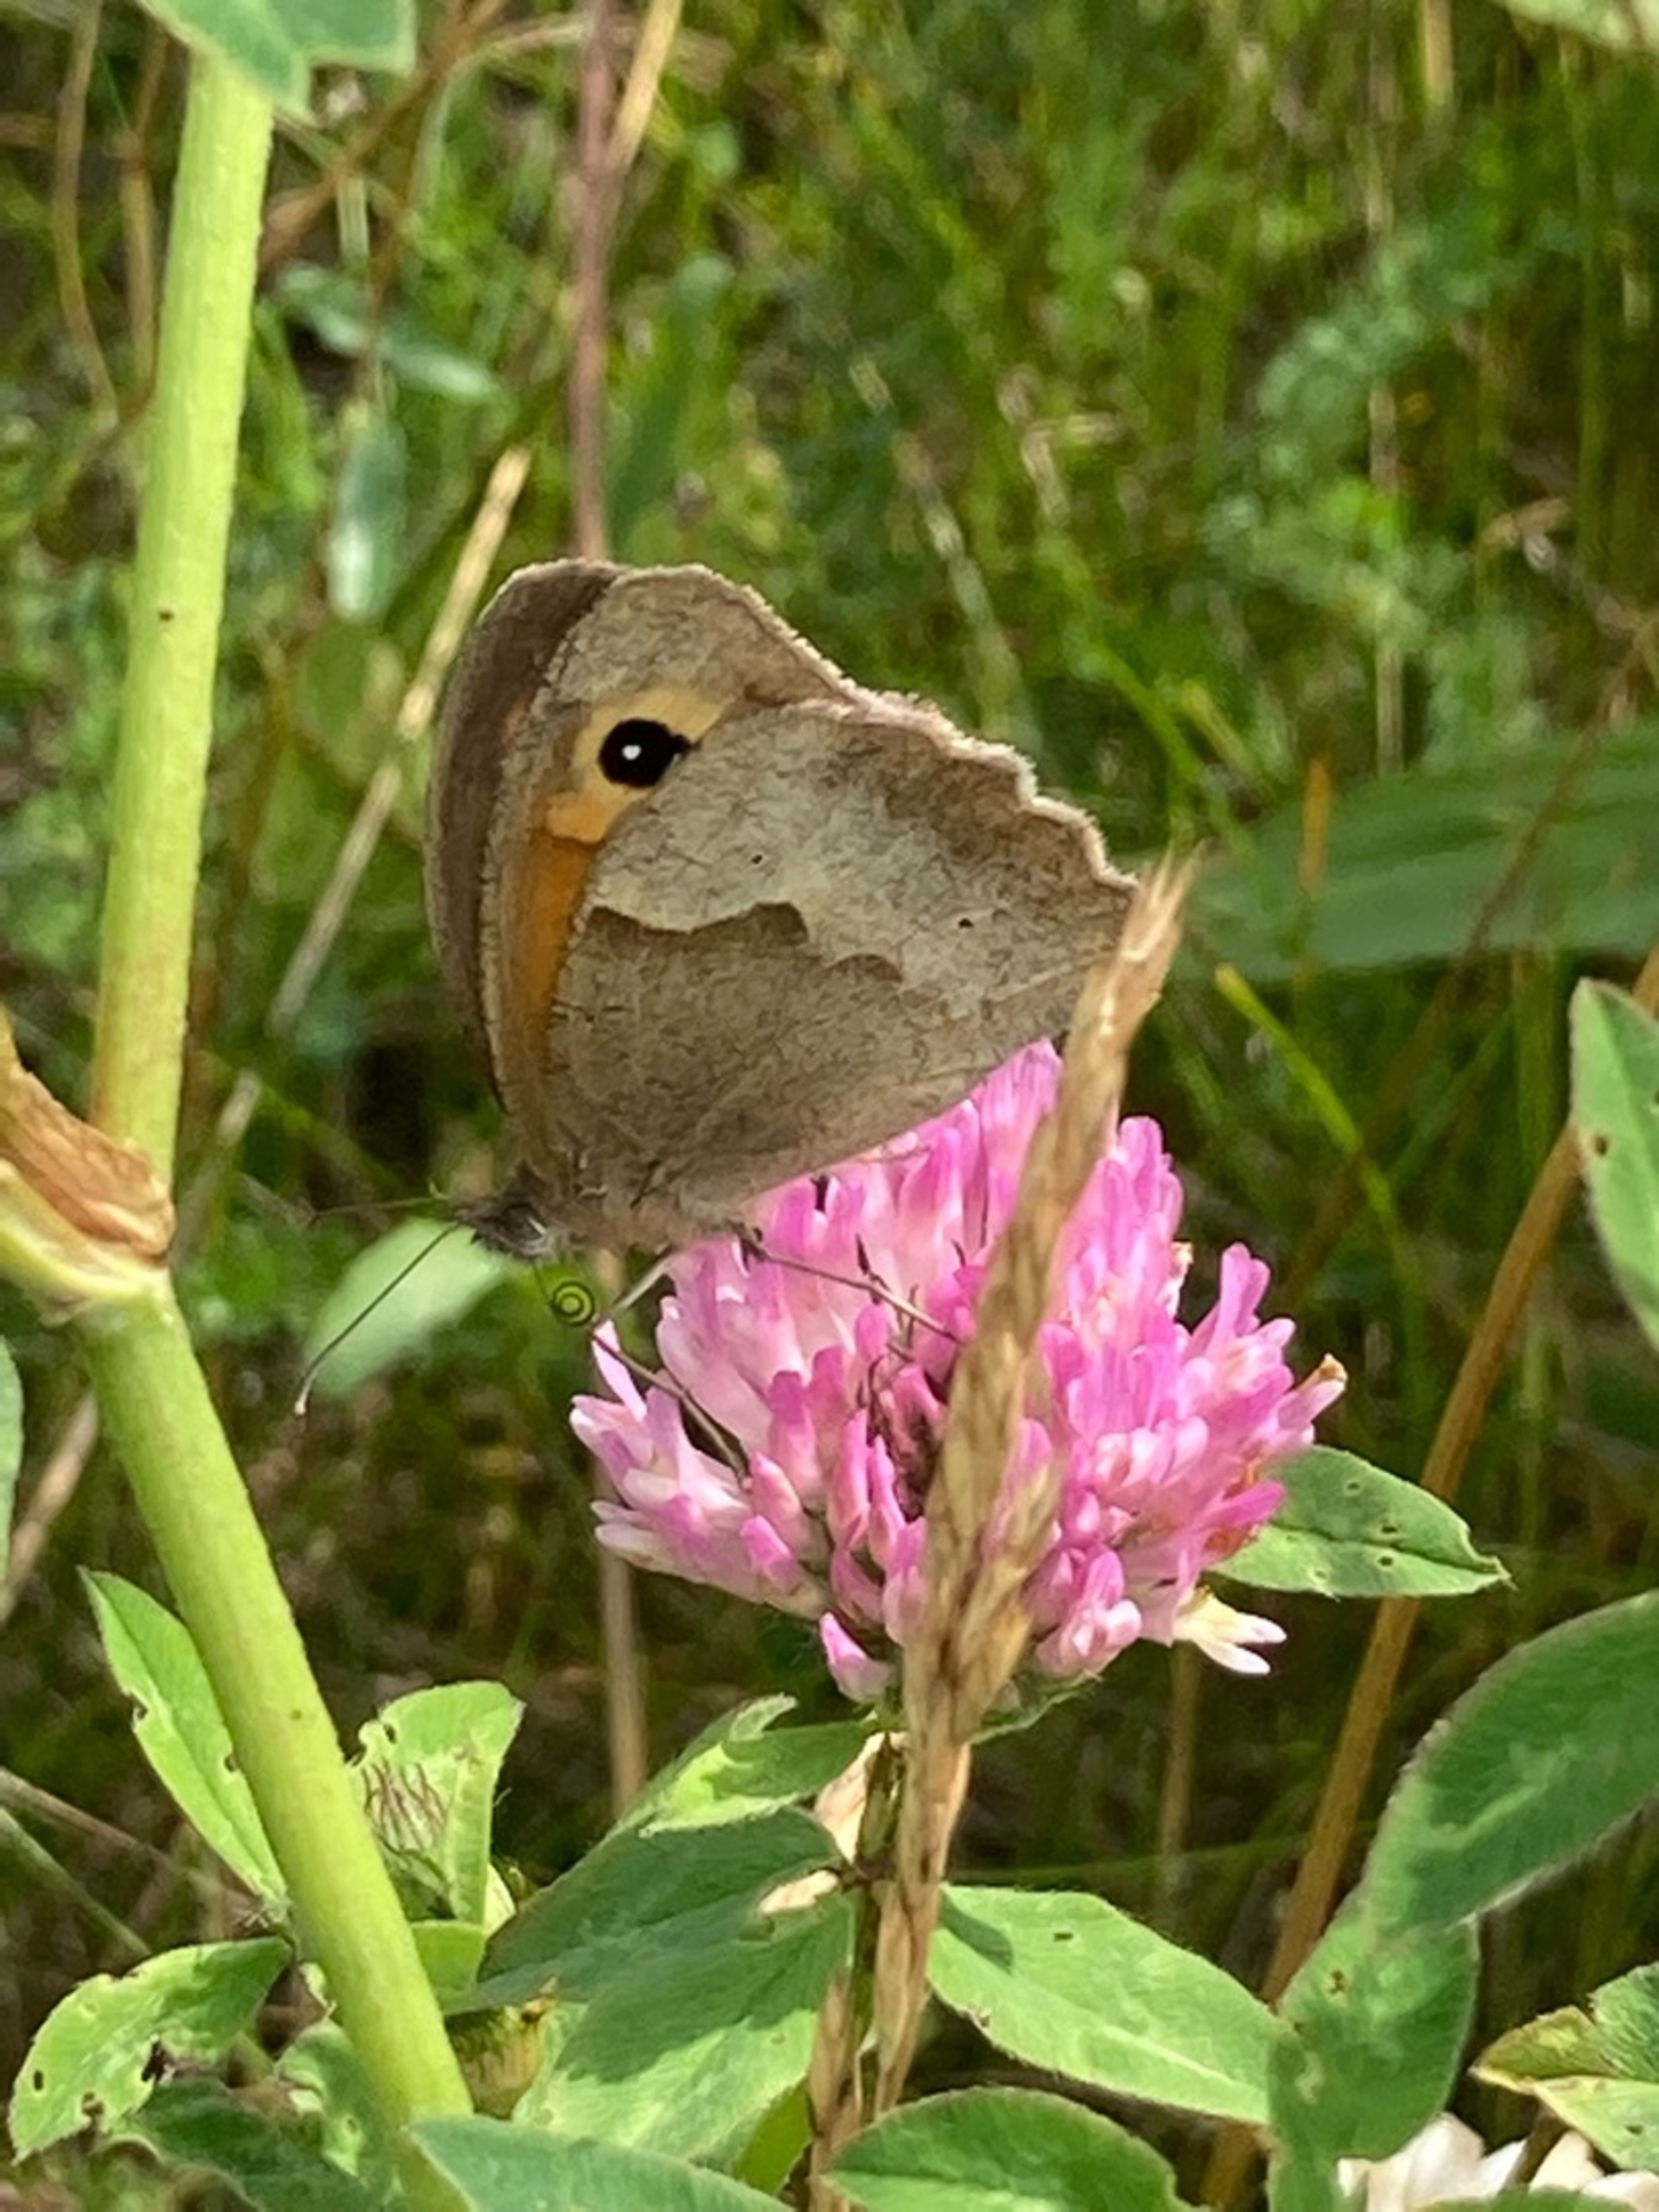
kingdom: Animalia
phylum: Arthropoda
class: Insecta
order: Lepidoptera
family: Nymphalidae
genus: Maniola
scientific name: Maniola jurtina
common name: Græsrandøje
